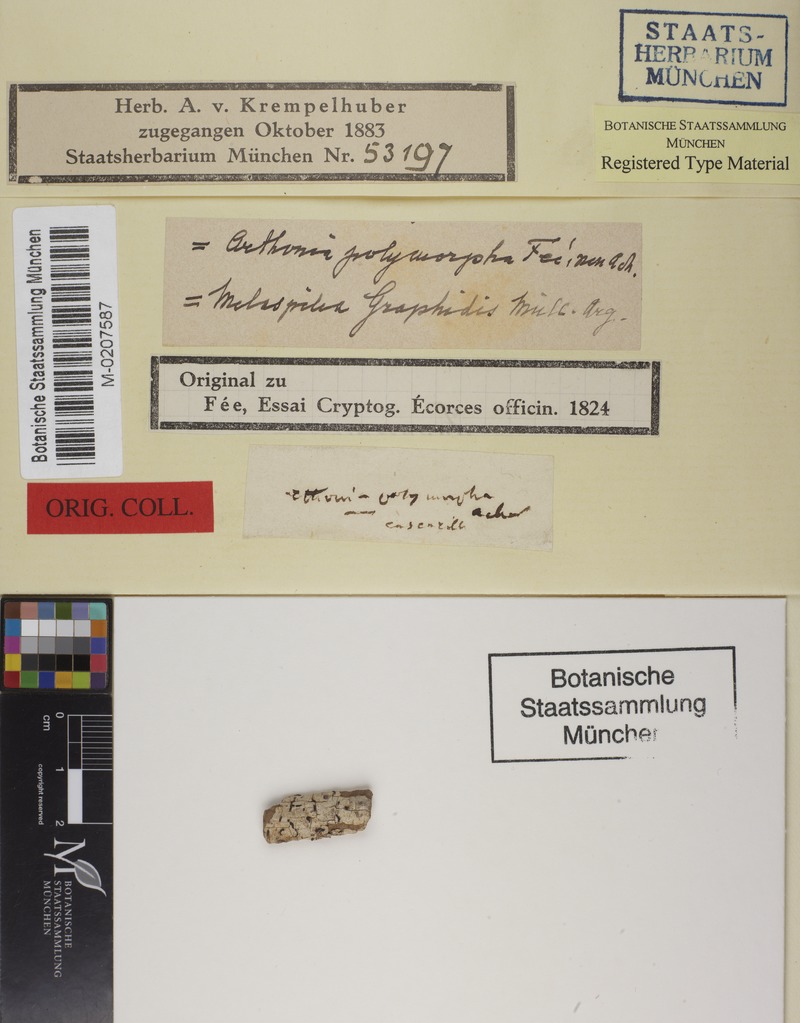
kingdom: Fungi
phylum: Ascomycota
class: Dothideomycetes
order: Eremithallales
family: Melaspileaceae
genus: Melaspilea
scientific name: Melaspilea
